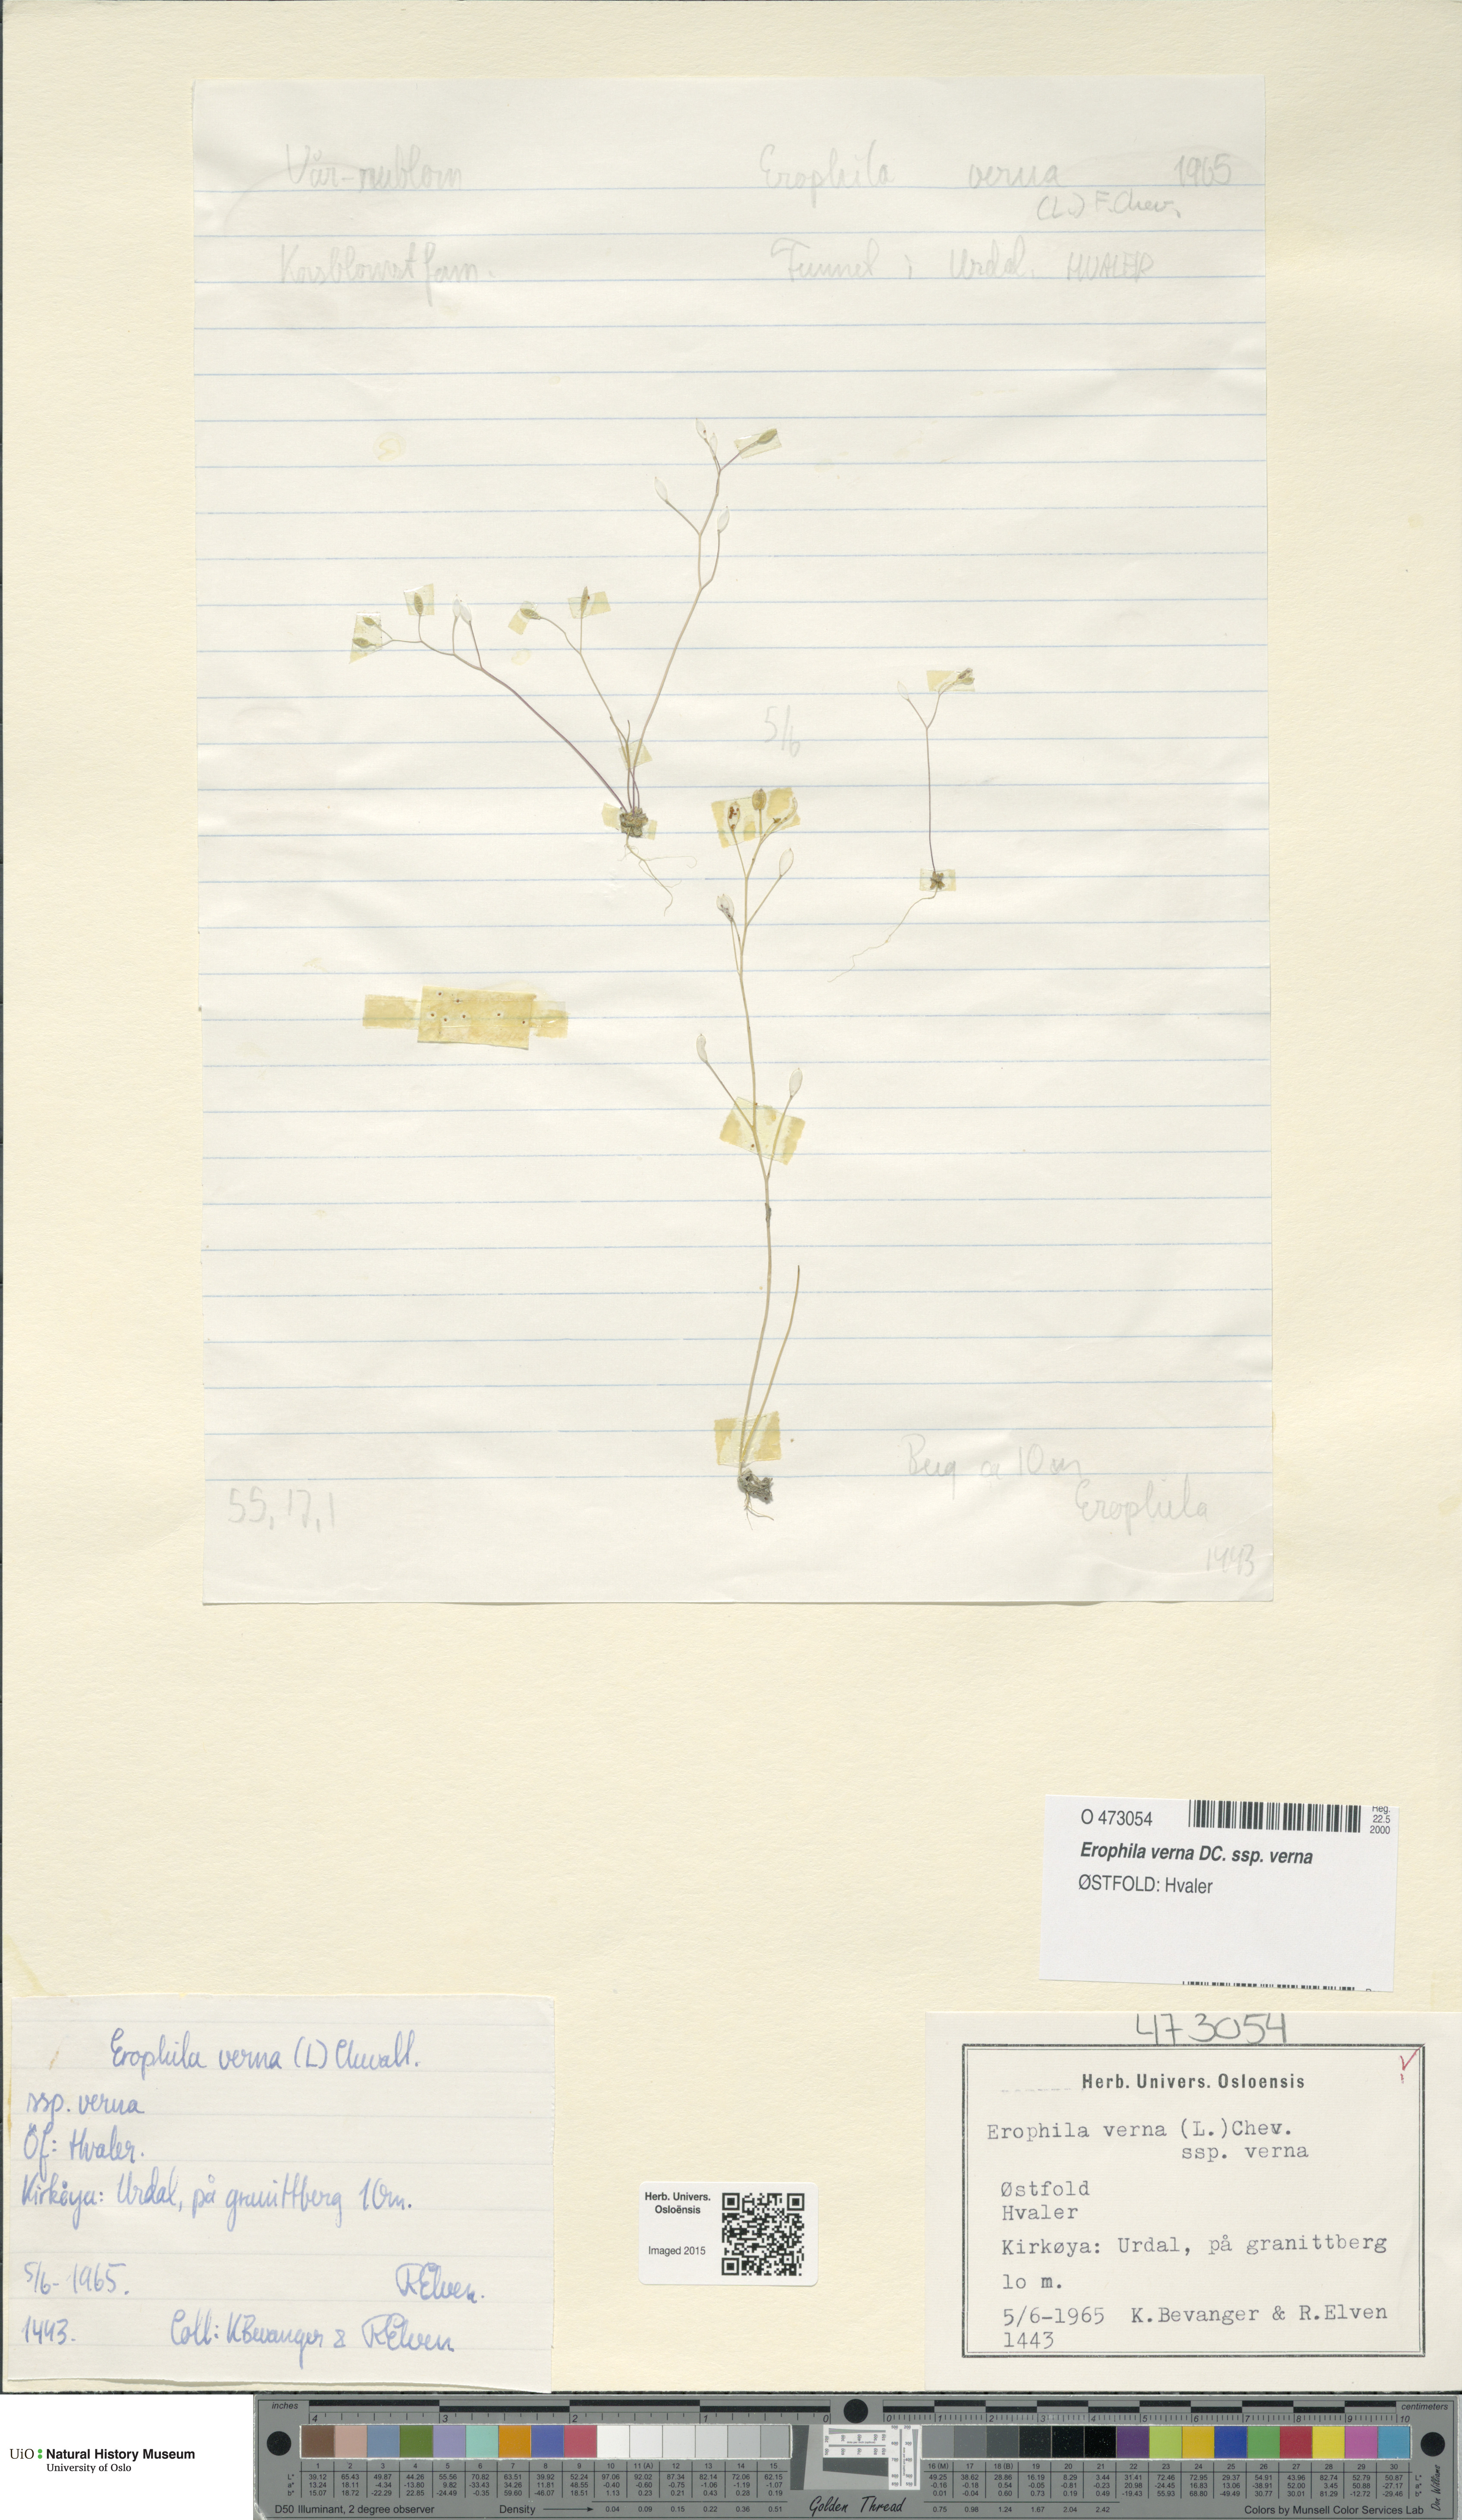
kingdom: Plantae
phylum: Tracheophyta
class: Magnoliopsida
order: Brassicales
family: Brassicaceae
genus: Draba
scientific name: Draba verna
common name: Spring draba
